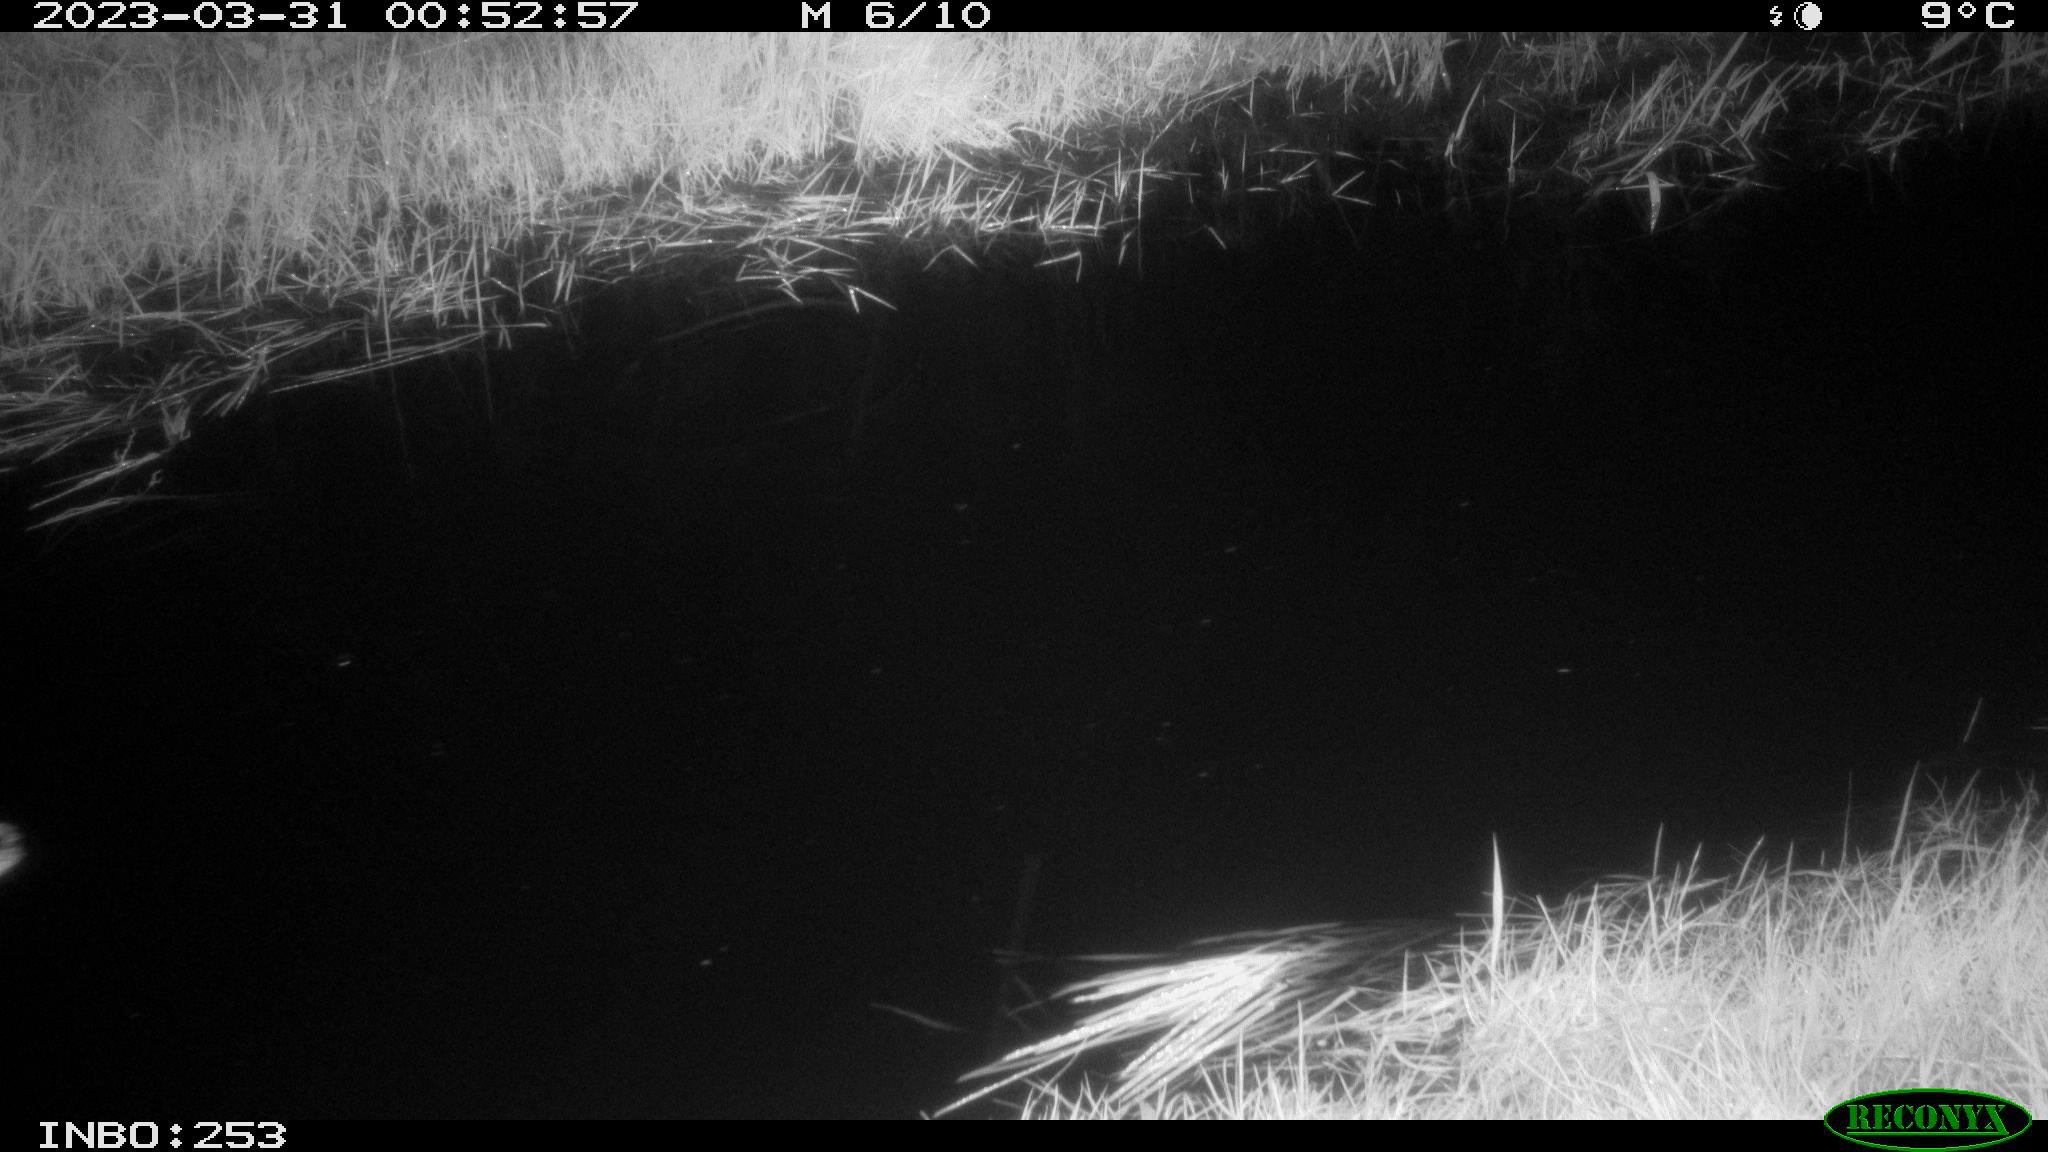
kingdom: Animalia
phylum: Chordata
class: Aves
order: Anseriformes
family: Anatidae
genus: Anas
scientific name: Anas
